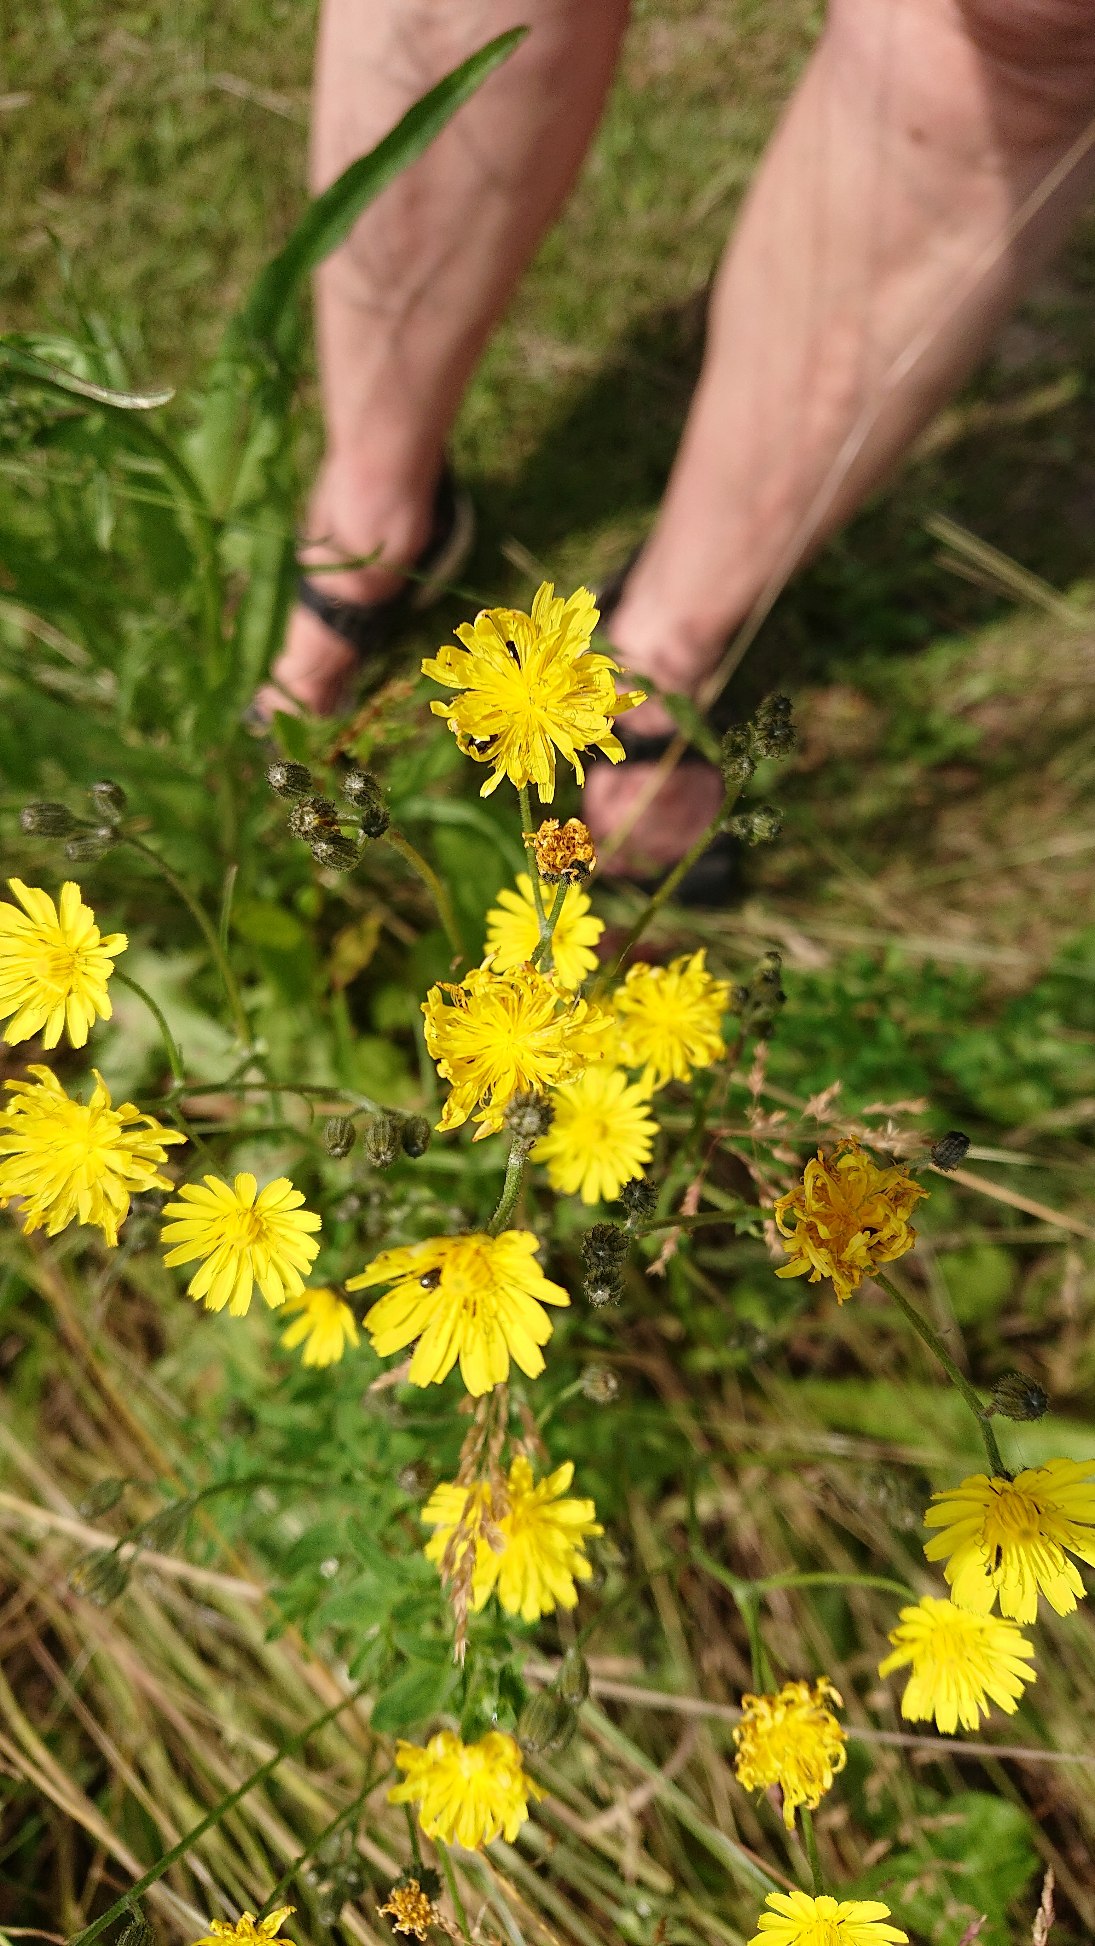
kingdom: Plantae
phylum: Tracheophyta
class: Magnoliopsida
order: Asterales
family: Asteraceae
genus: Crepis
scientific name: Crepis capillaris
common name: Grøn høgeskæg
